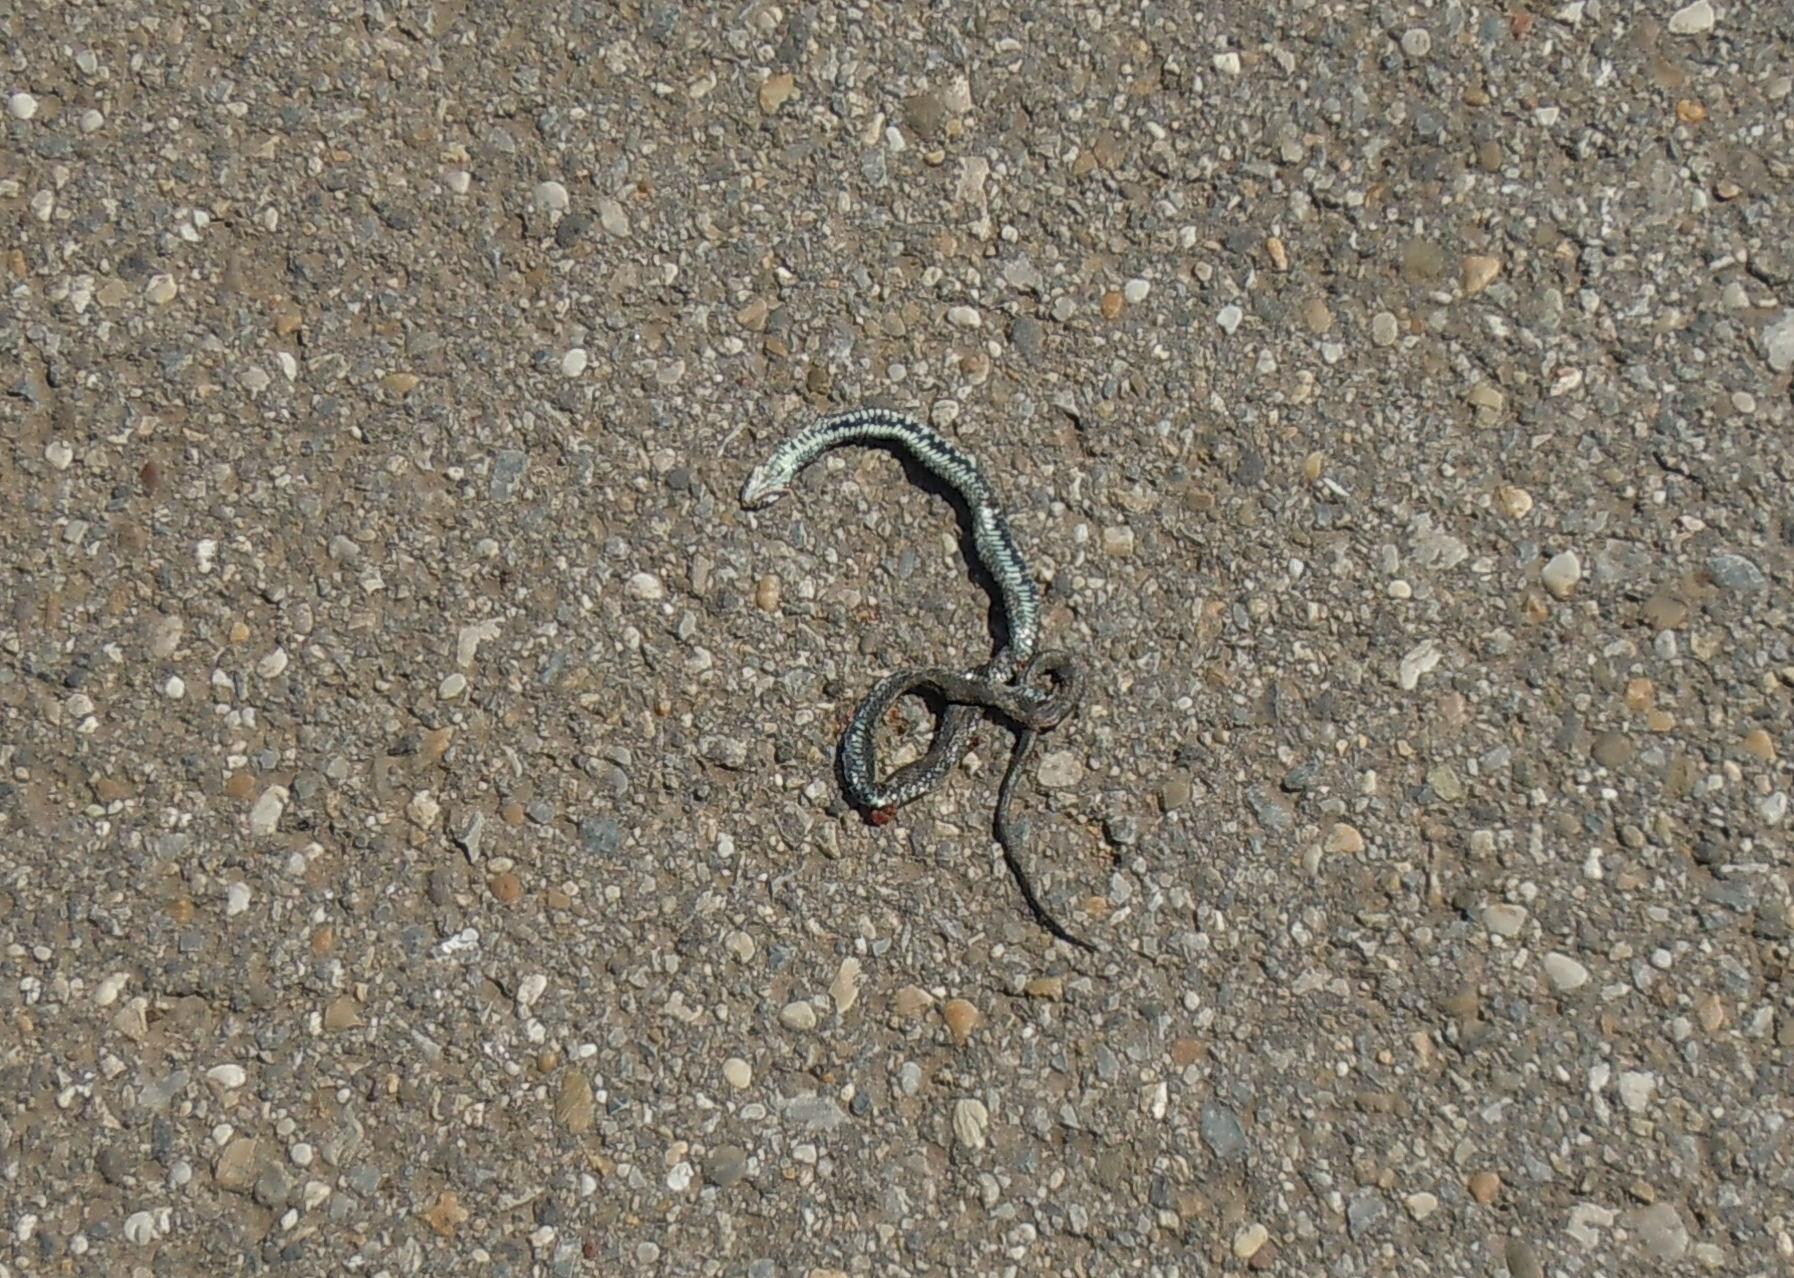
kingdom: Animalia
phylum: Chordata
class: Squamata
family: Colubridae
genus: Natrix
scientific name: Natrix natrix
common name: Grass snake
